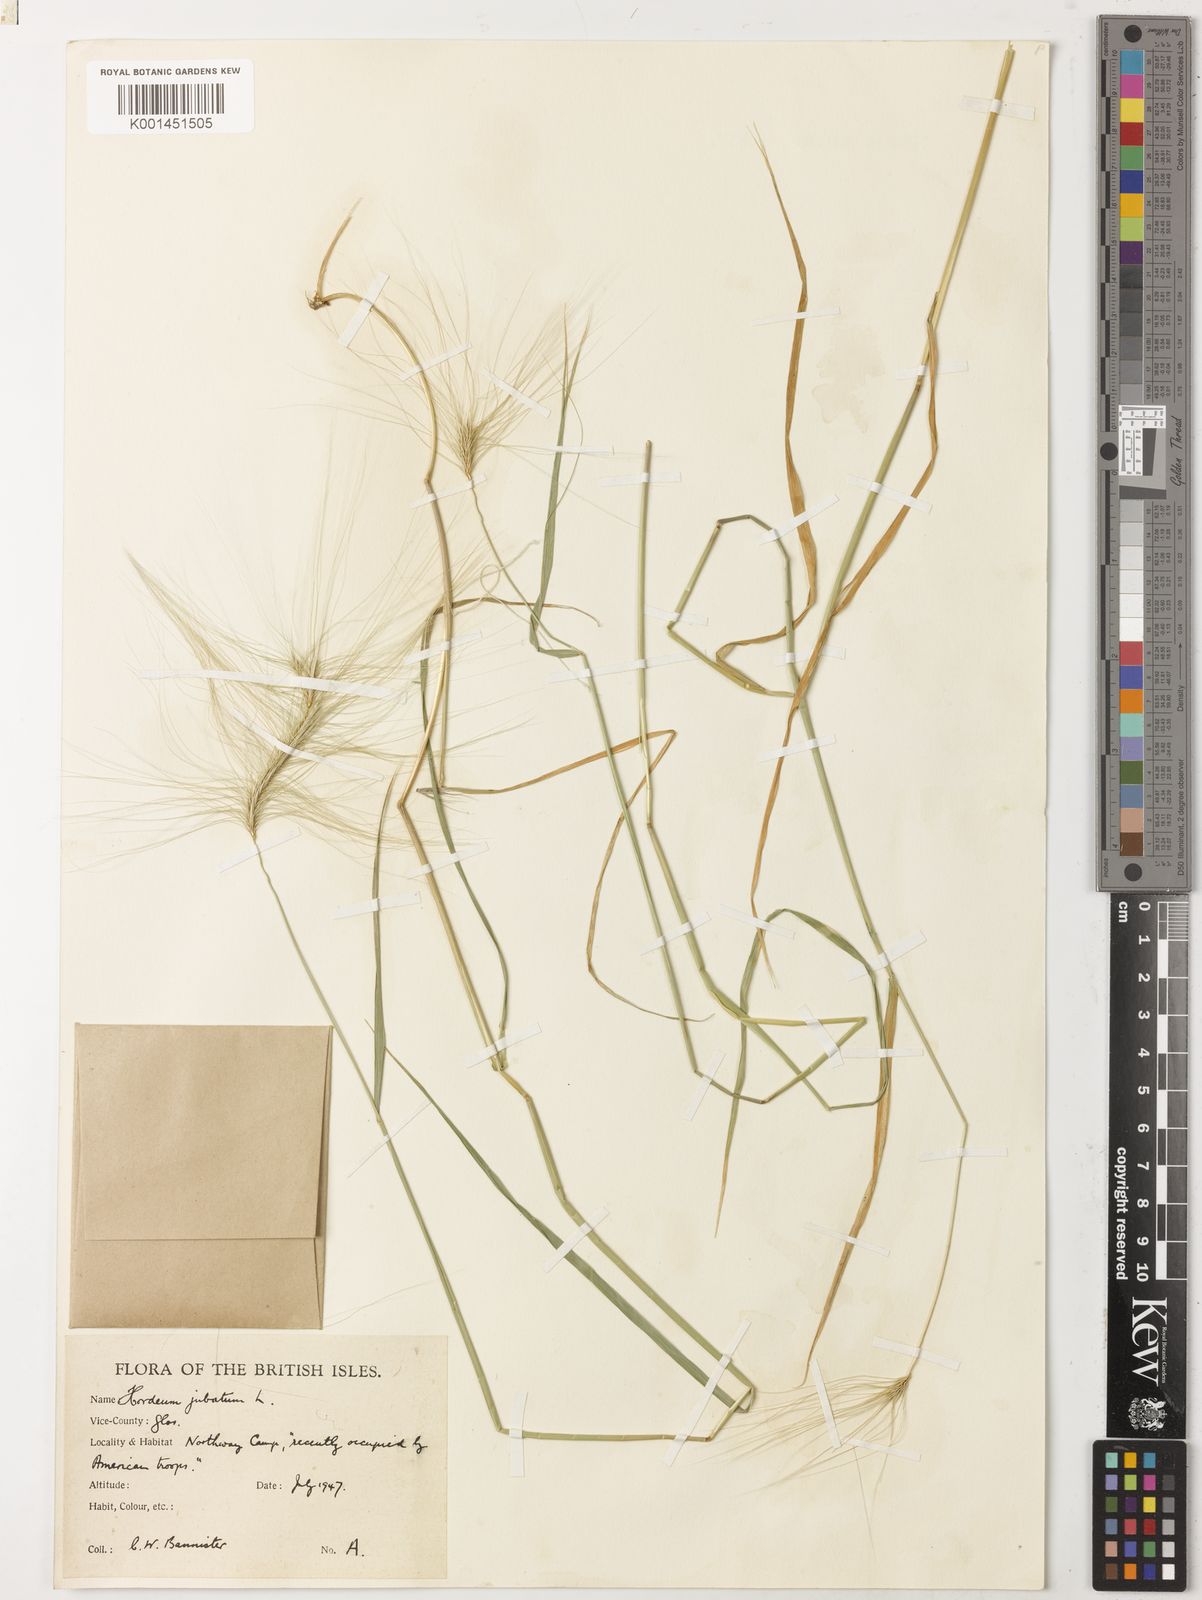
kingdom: Plantae
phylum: Tracheophyta
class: Liliopsida
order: Poales
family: Poaceae
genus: Hordeum
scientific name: Hordeum jubatum
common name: Foxtail barley
